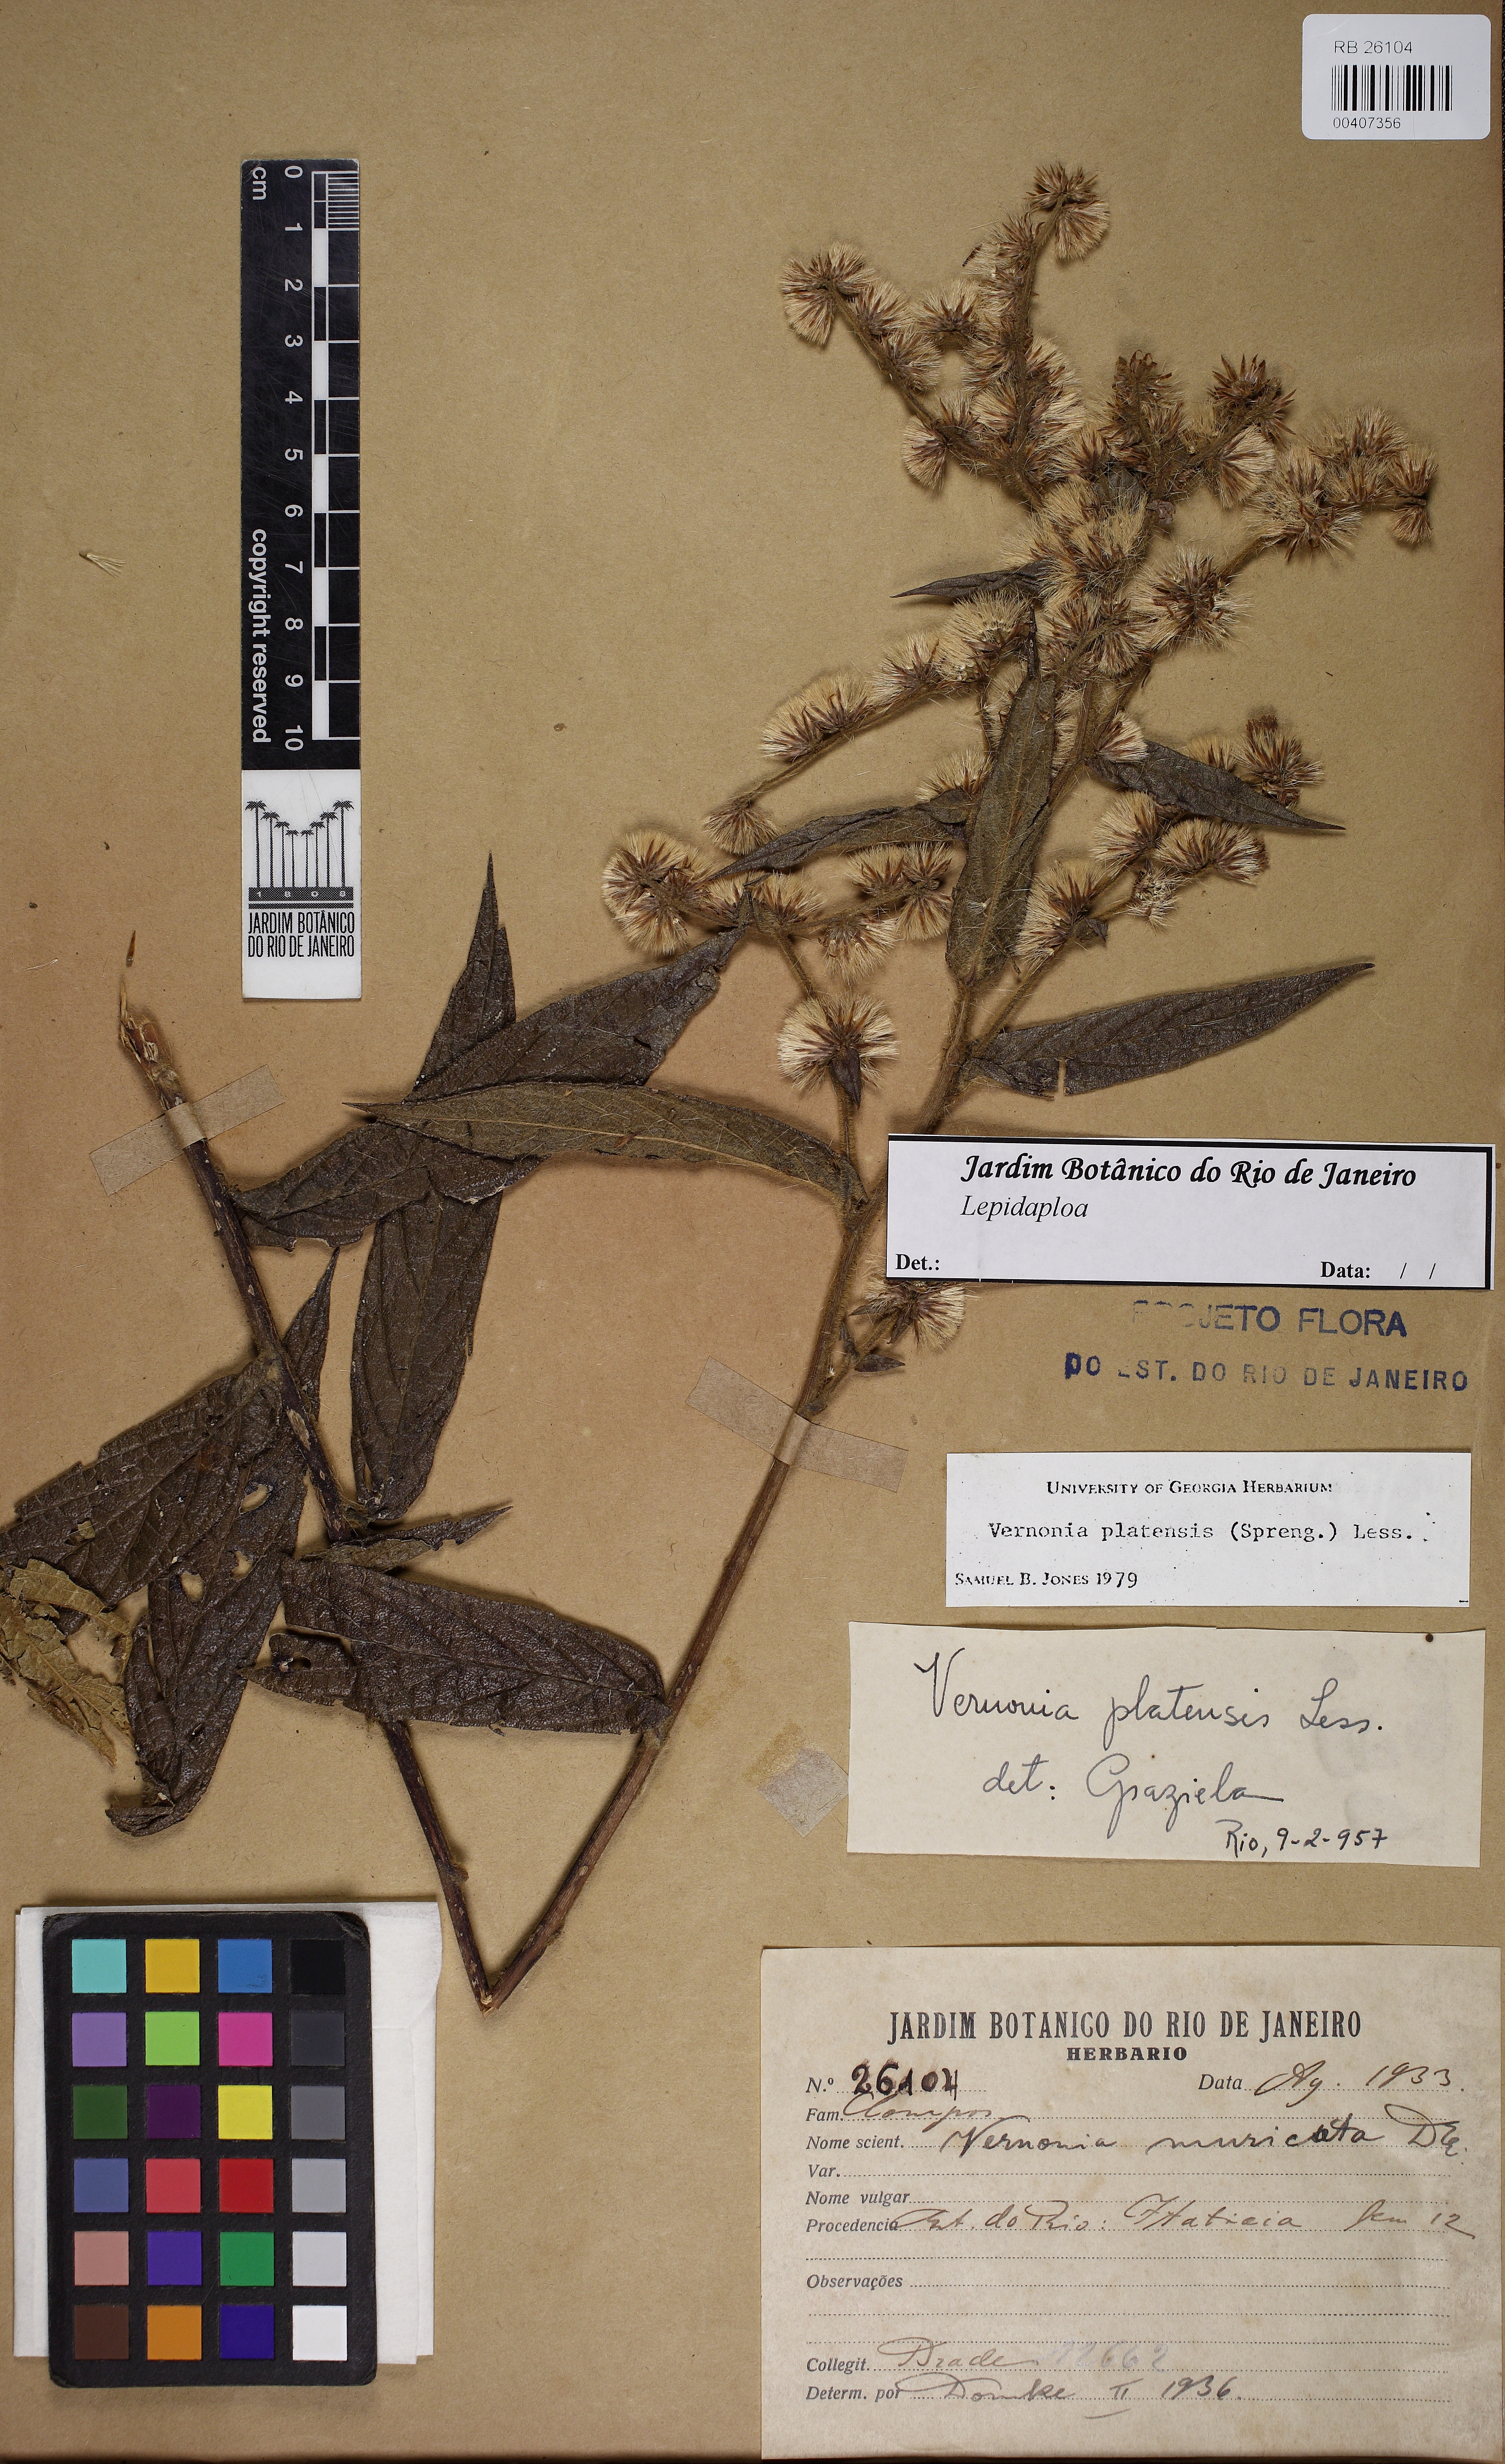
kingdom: Plantae
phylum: Tracheophyta
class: Magnoliopsida
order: Asterales
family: Asteraceae
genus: Lepidaploa
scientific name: Lepidaploa
